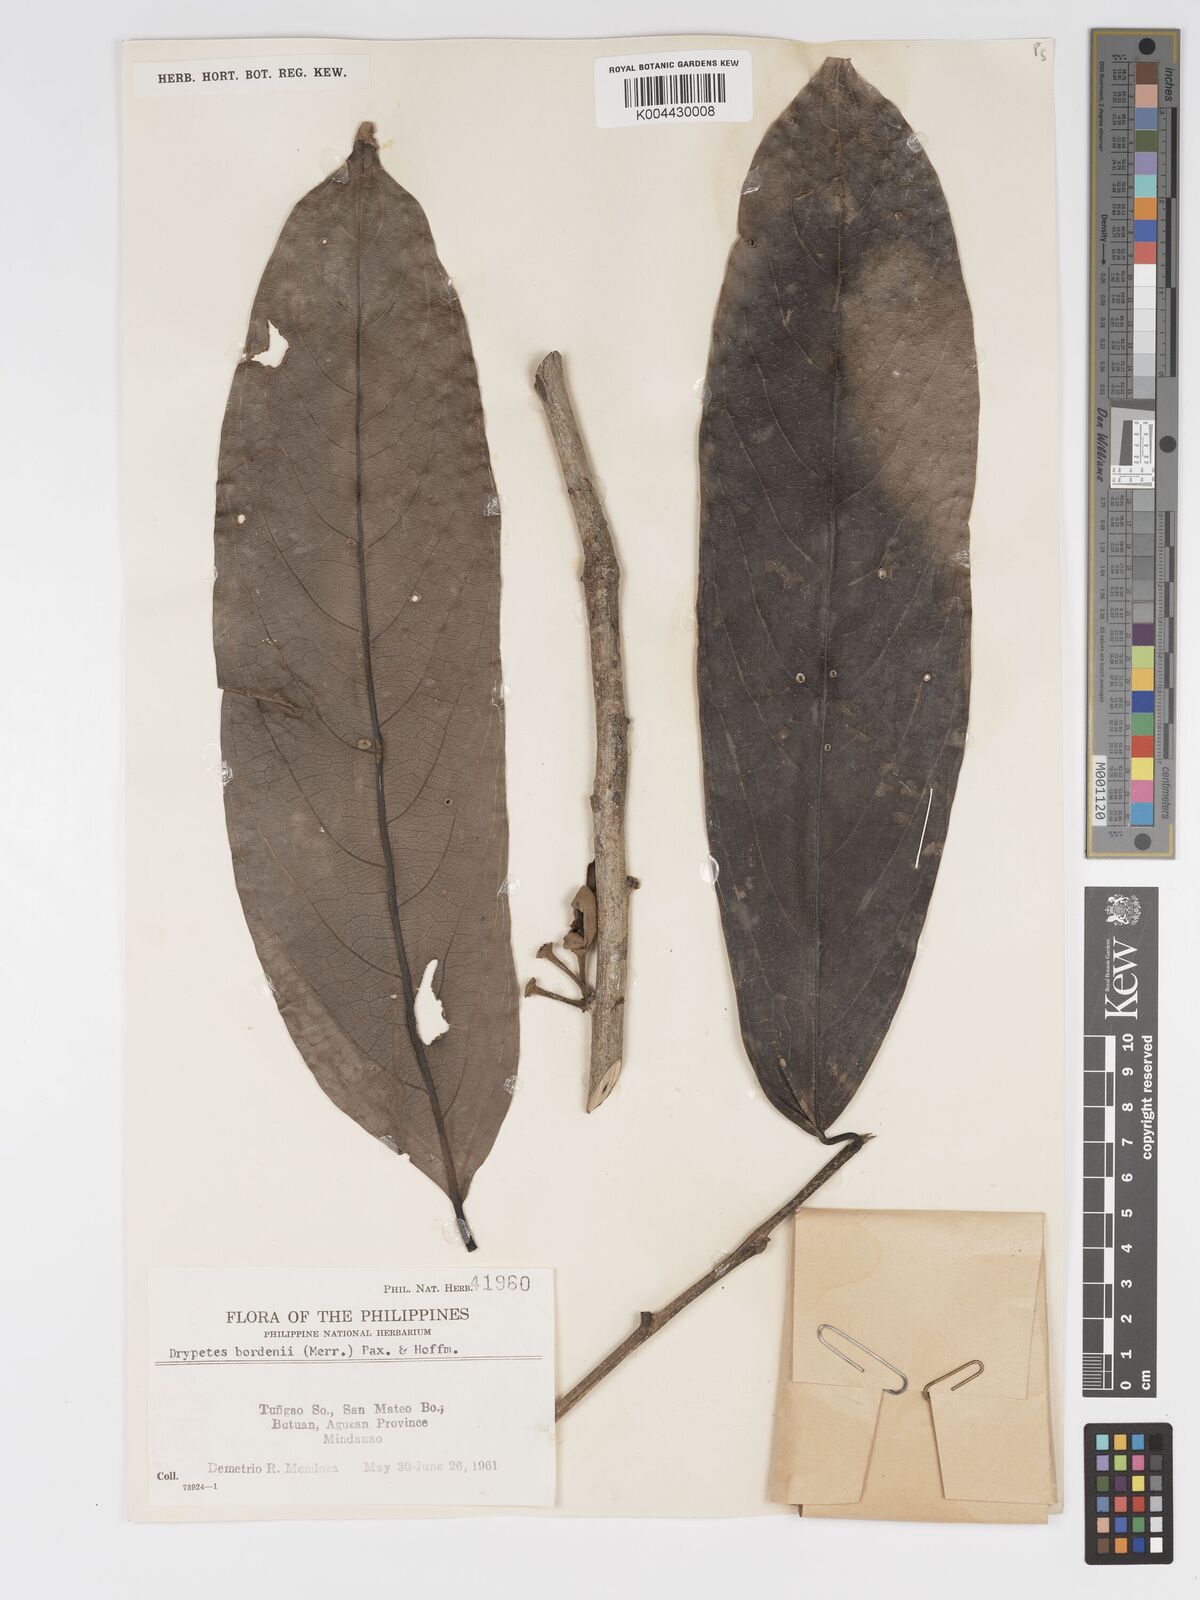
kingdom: Plantae
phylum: Tracheophyta
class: Magnoliopsida
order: Malpighiales
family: Putranjivaceae
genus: Drypetes
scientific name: Drypetes longifolia
